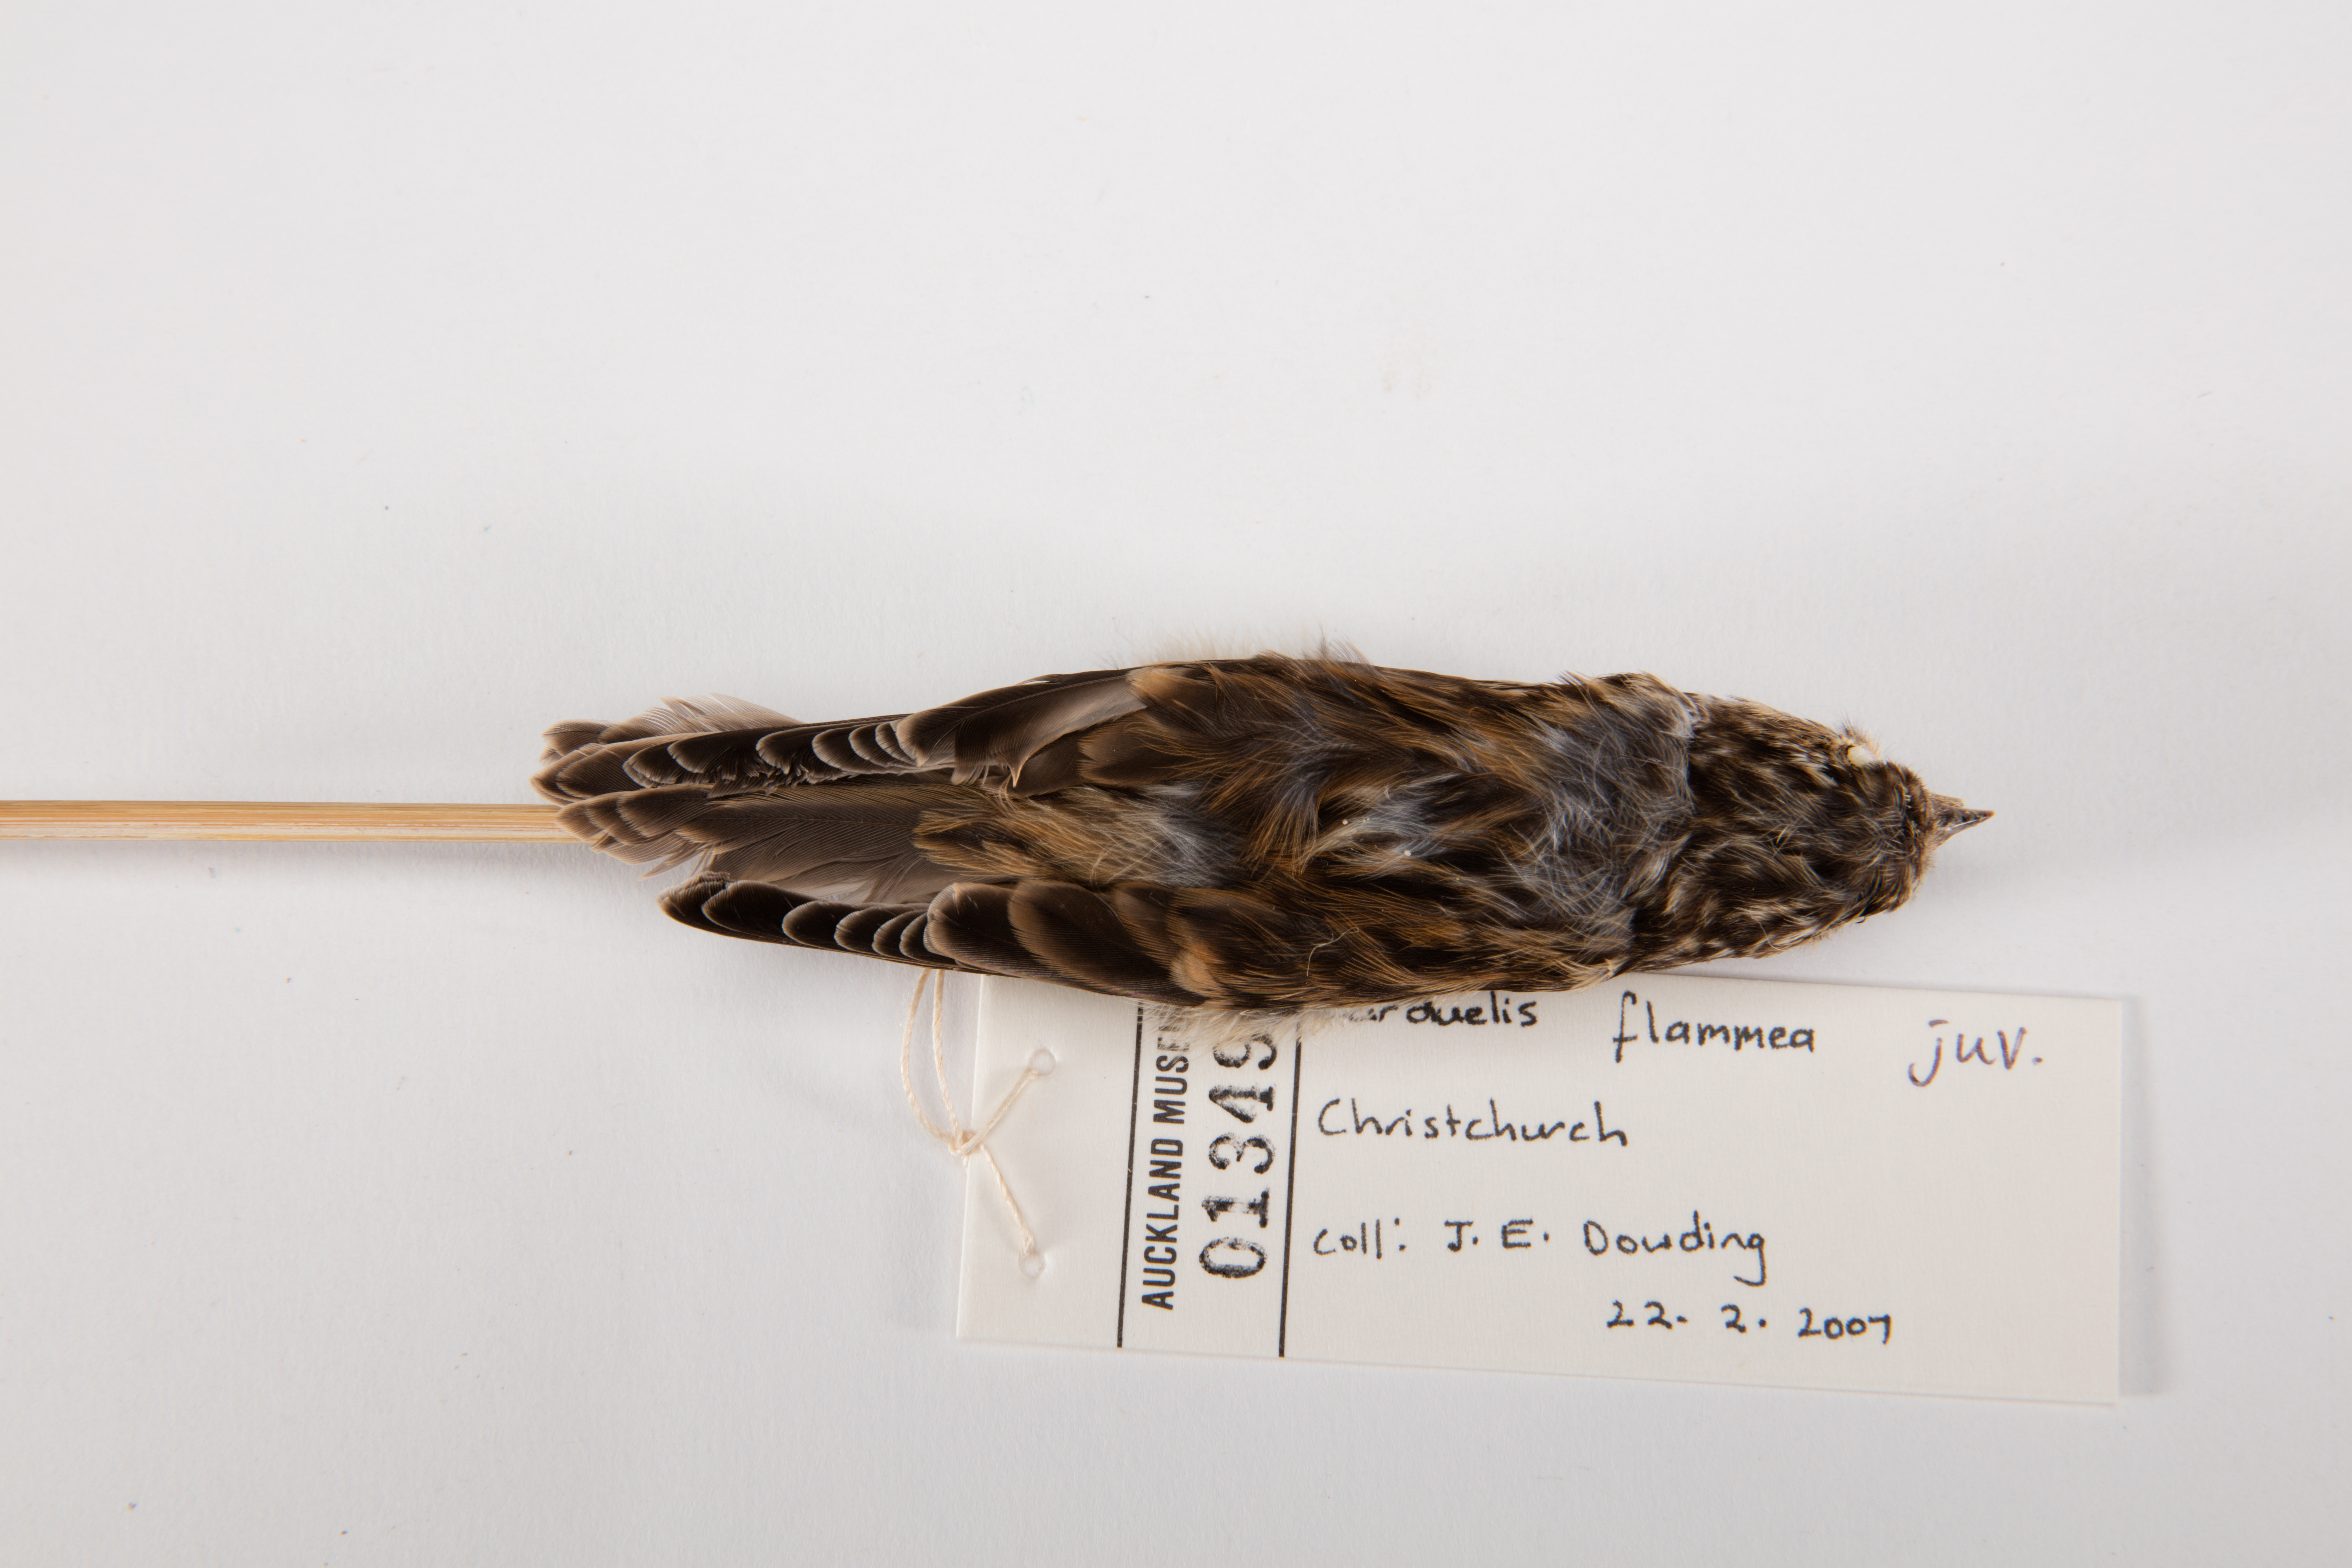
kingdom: Animalia
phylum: Chordata
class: Aves
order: Passeriformes
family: Fringillidae
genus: Acanthis
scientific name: Acanthis flammea
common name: Common redpoll
